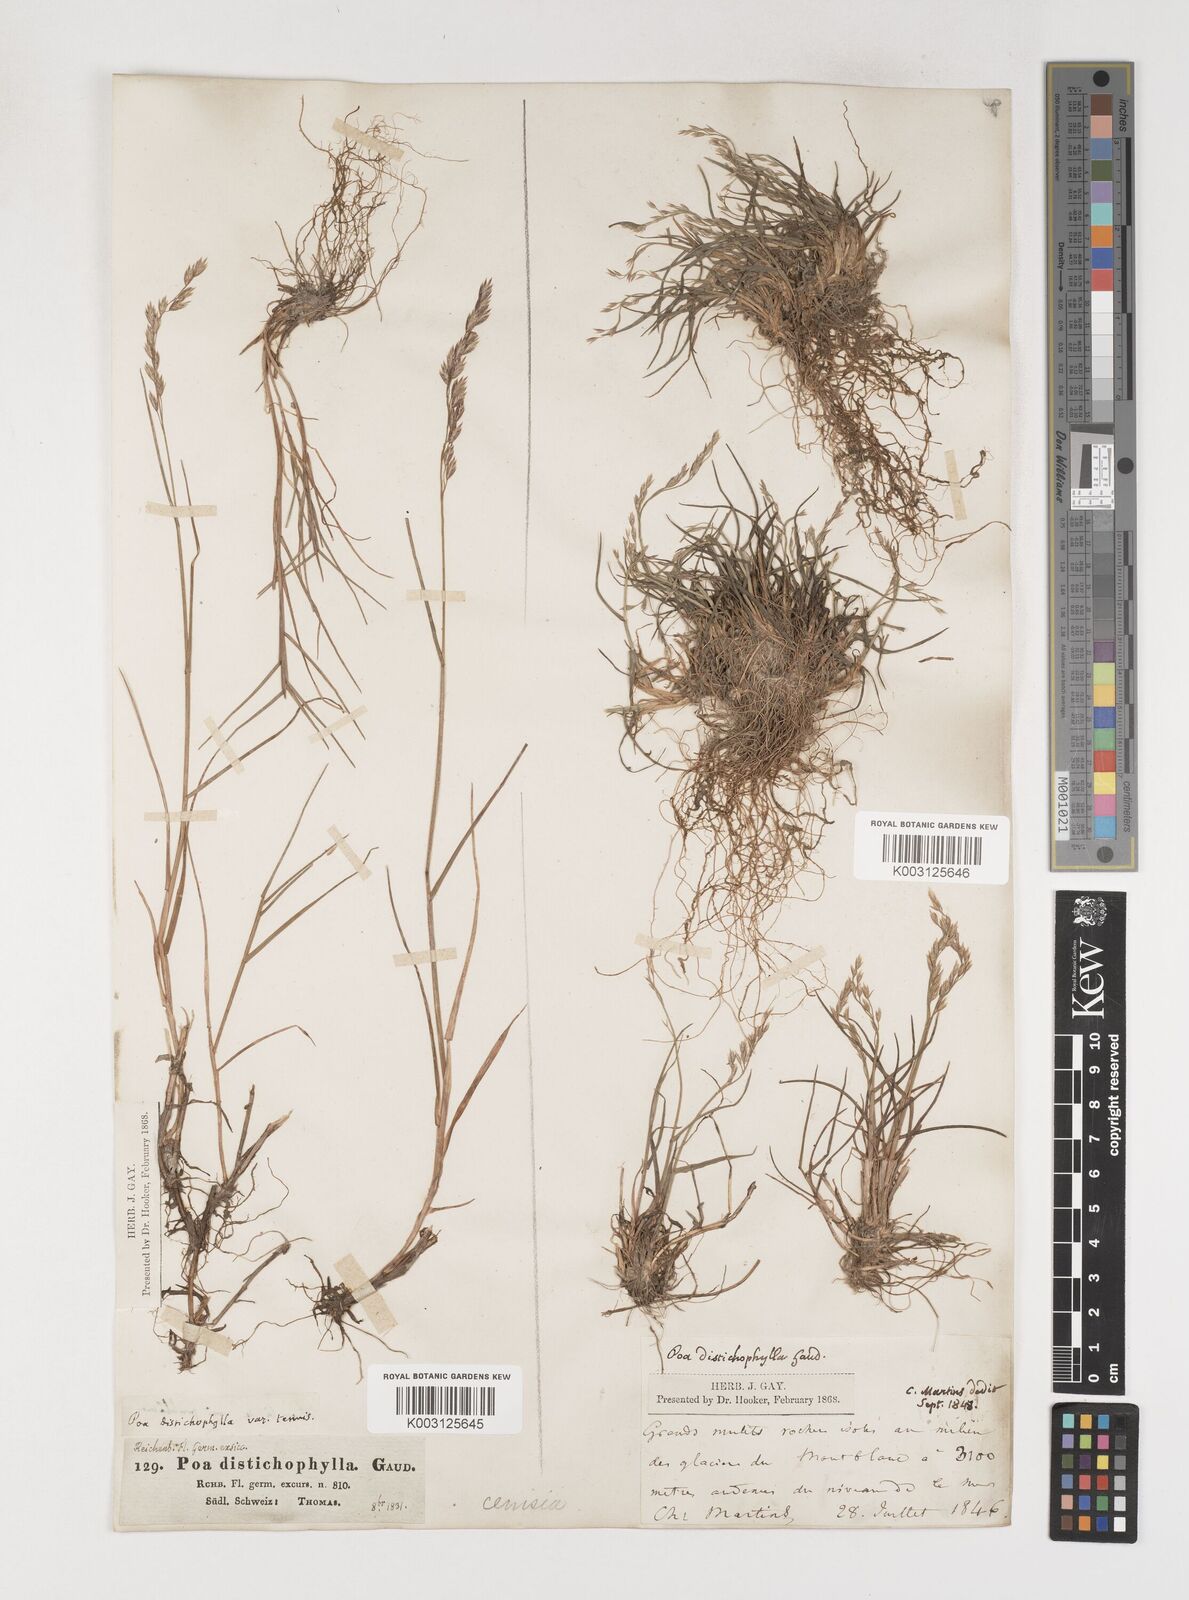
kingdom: Plantae
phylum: Tracheophyta
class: Liliopsida
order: Poales
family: Poaceae
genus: Poa
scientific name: Poa
